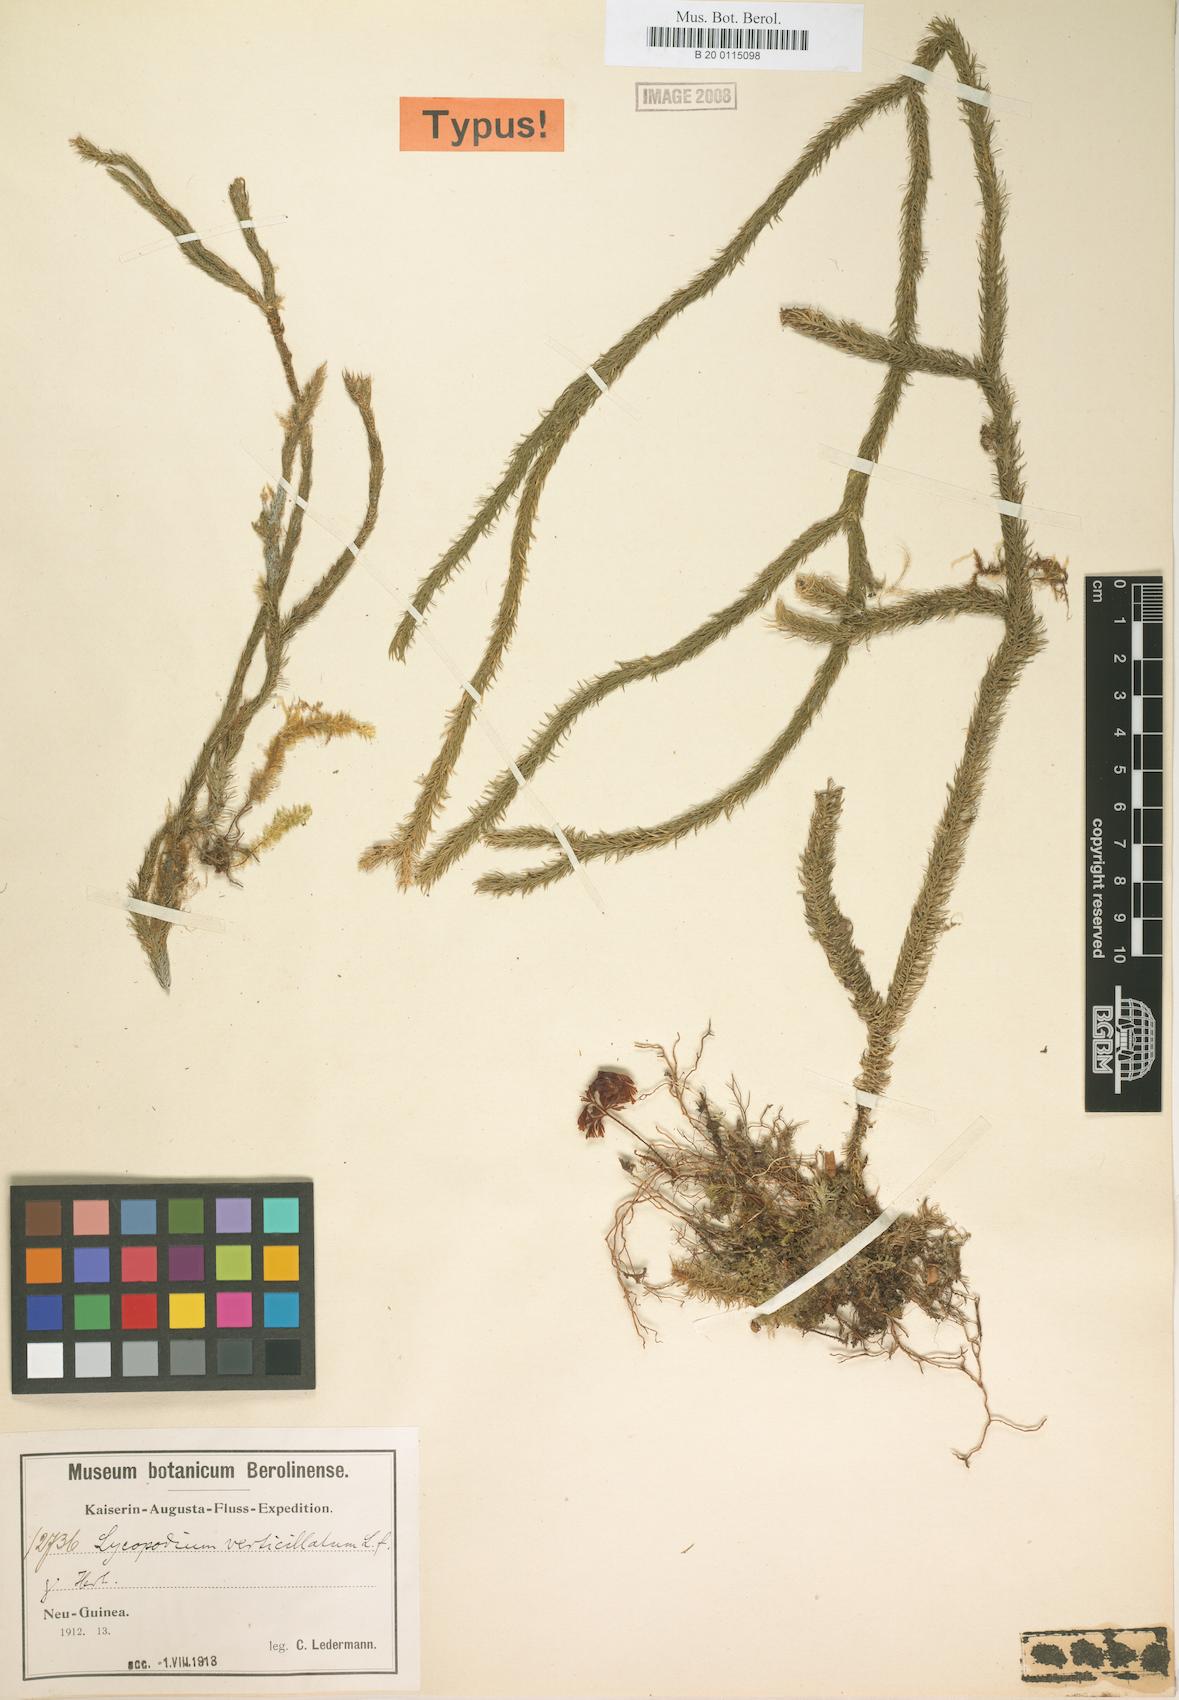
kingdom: Plantae
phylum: Tracheophyta
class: Lycopodiopsida
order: Lycopodiales
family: Lycopodiaceae
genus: Phlegmariurus
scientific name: Phlegmariurus verticillatus
